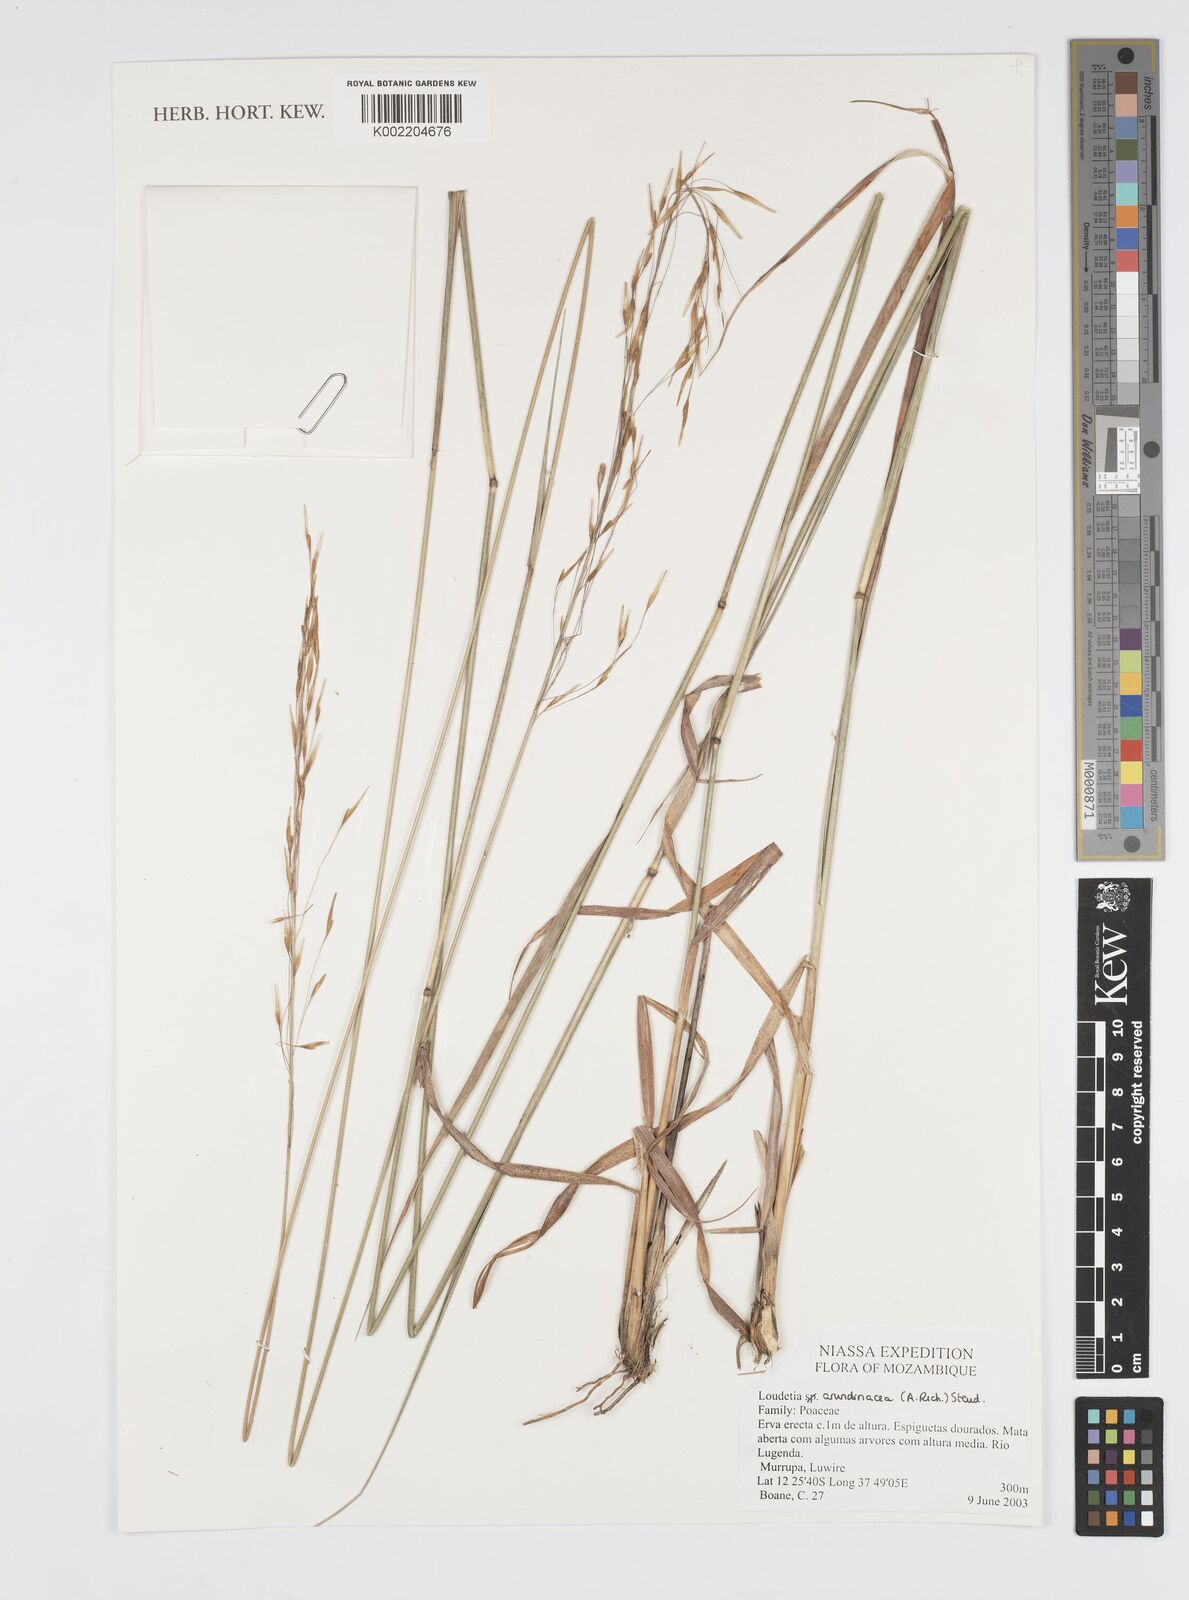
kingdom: Plantae
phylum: Tracheophyta
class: Liliopsida
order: Poales
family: Poaceae
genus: Loudetia
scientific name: Loudetia arundinacea
